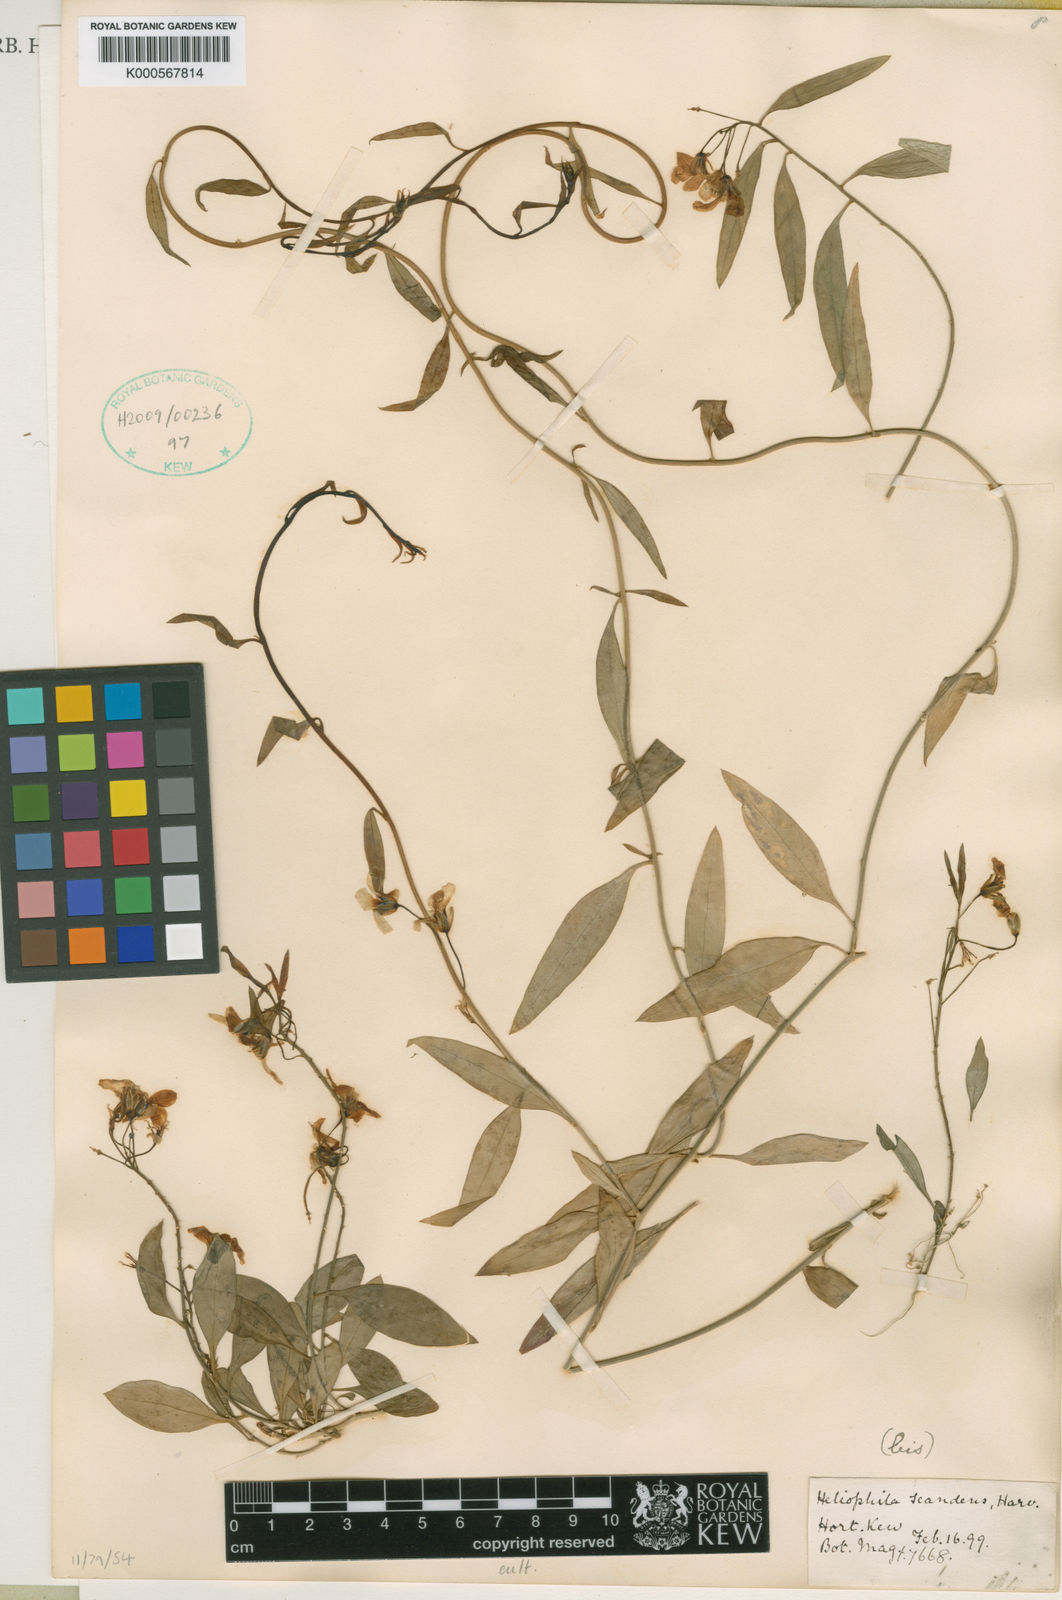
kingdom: Plantae
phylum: Tracheophyta
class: Magnoliopsida
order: Brassicales
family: Brassicaceae
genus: Heliophila
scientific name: Heliophila scandens
